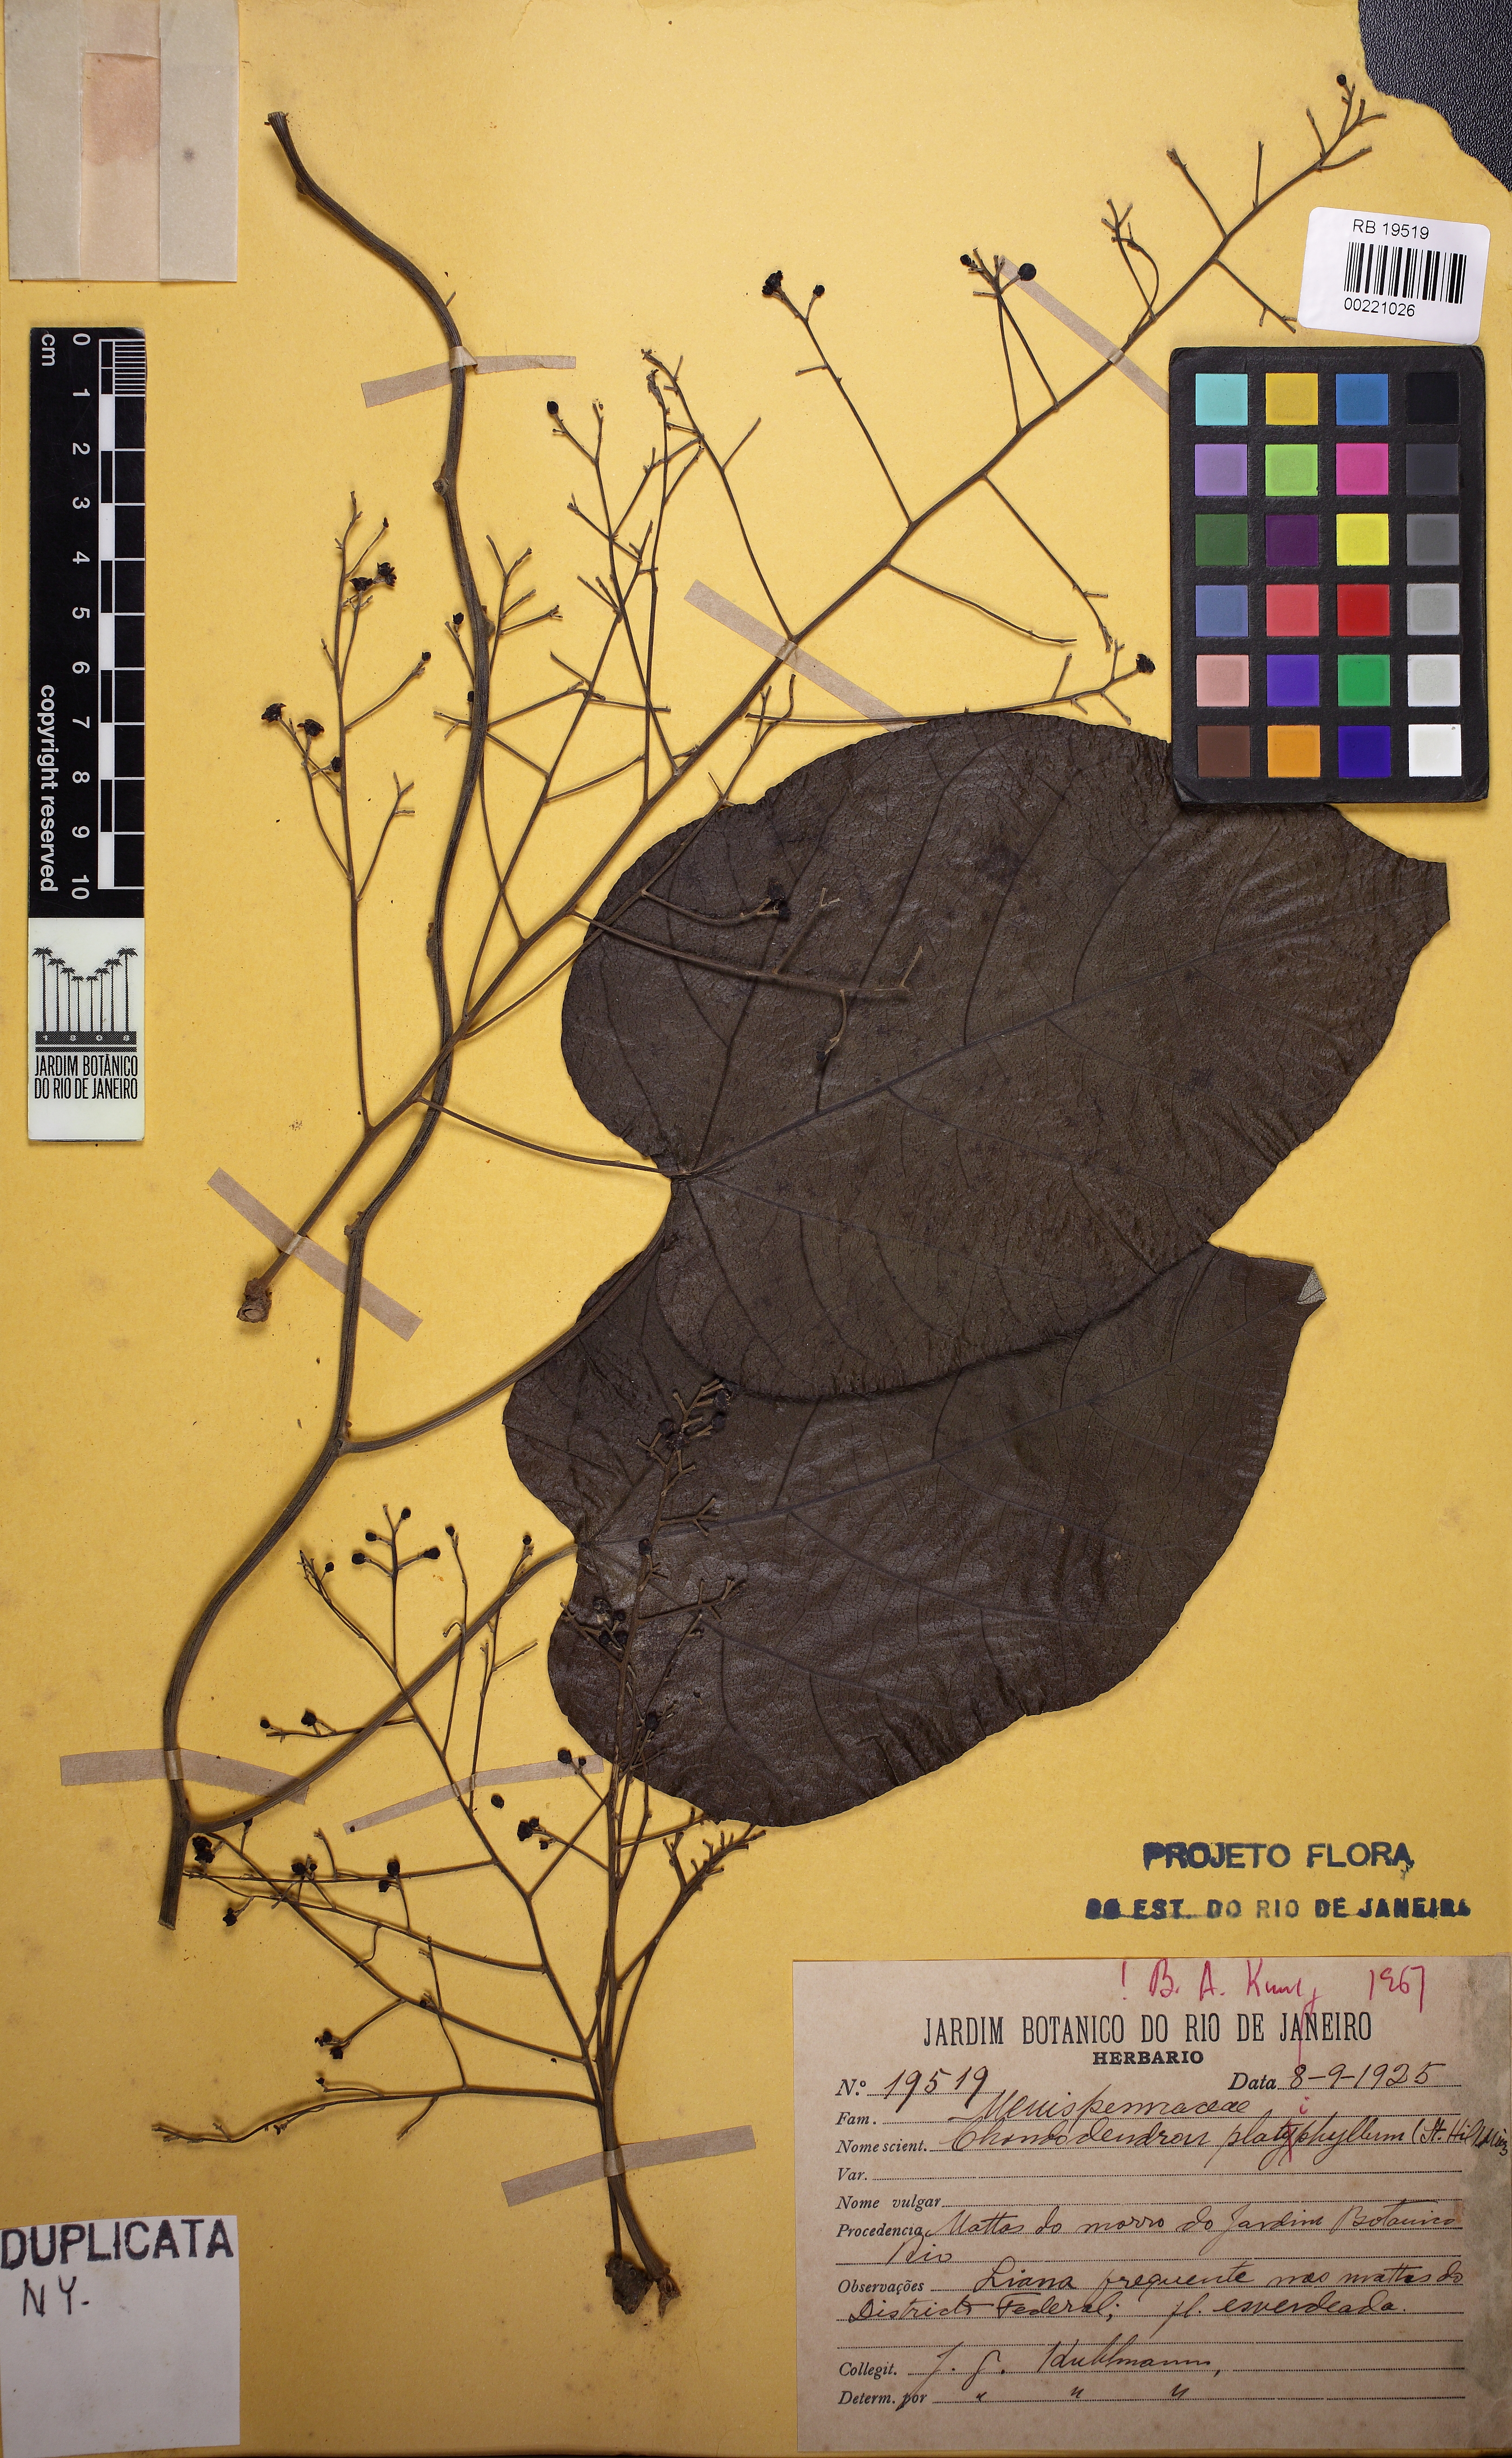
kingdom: Plantae
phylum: Tracheophyta
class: Magnoliopsida
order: Ranunculales
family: Menispermaceae
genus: Chondrodendron
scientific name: Chondrodendron platyphyllum
